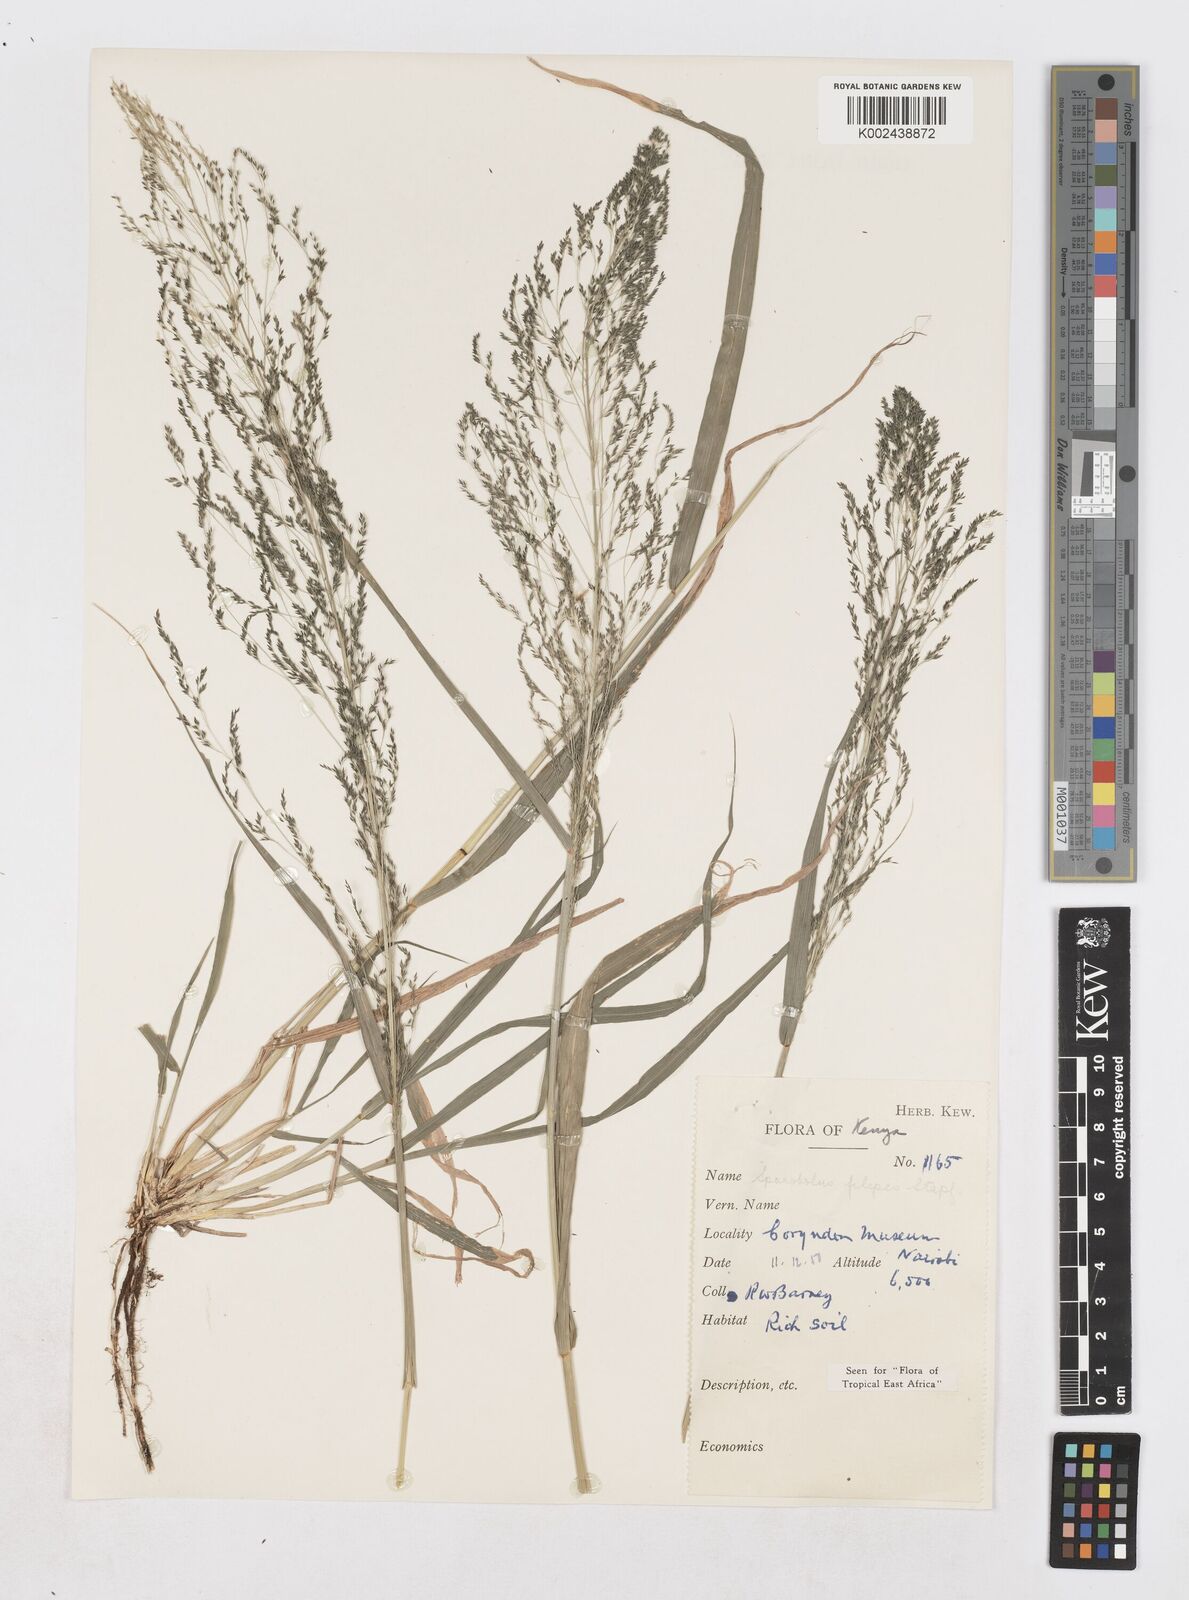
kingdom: Plantae
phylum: Tracheophyta
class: Liliopsida
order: Poales
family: Poaceae
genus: Sporobolus
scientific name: Sporobolus agrostoides
